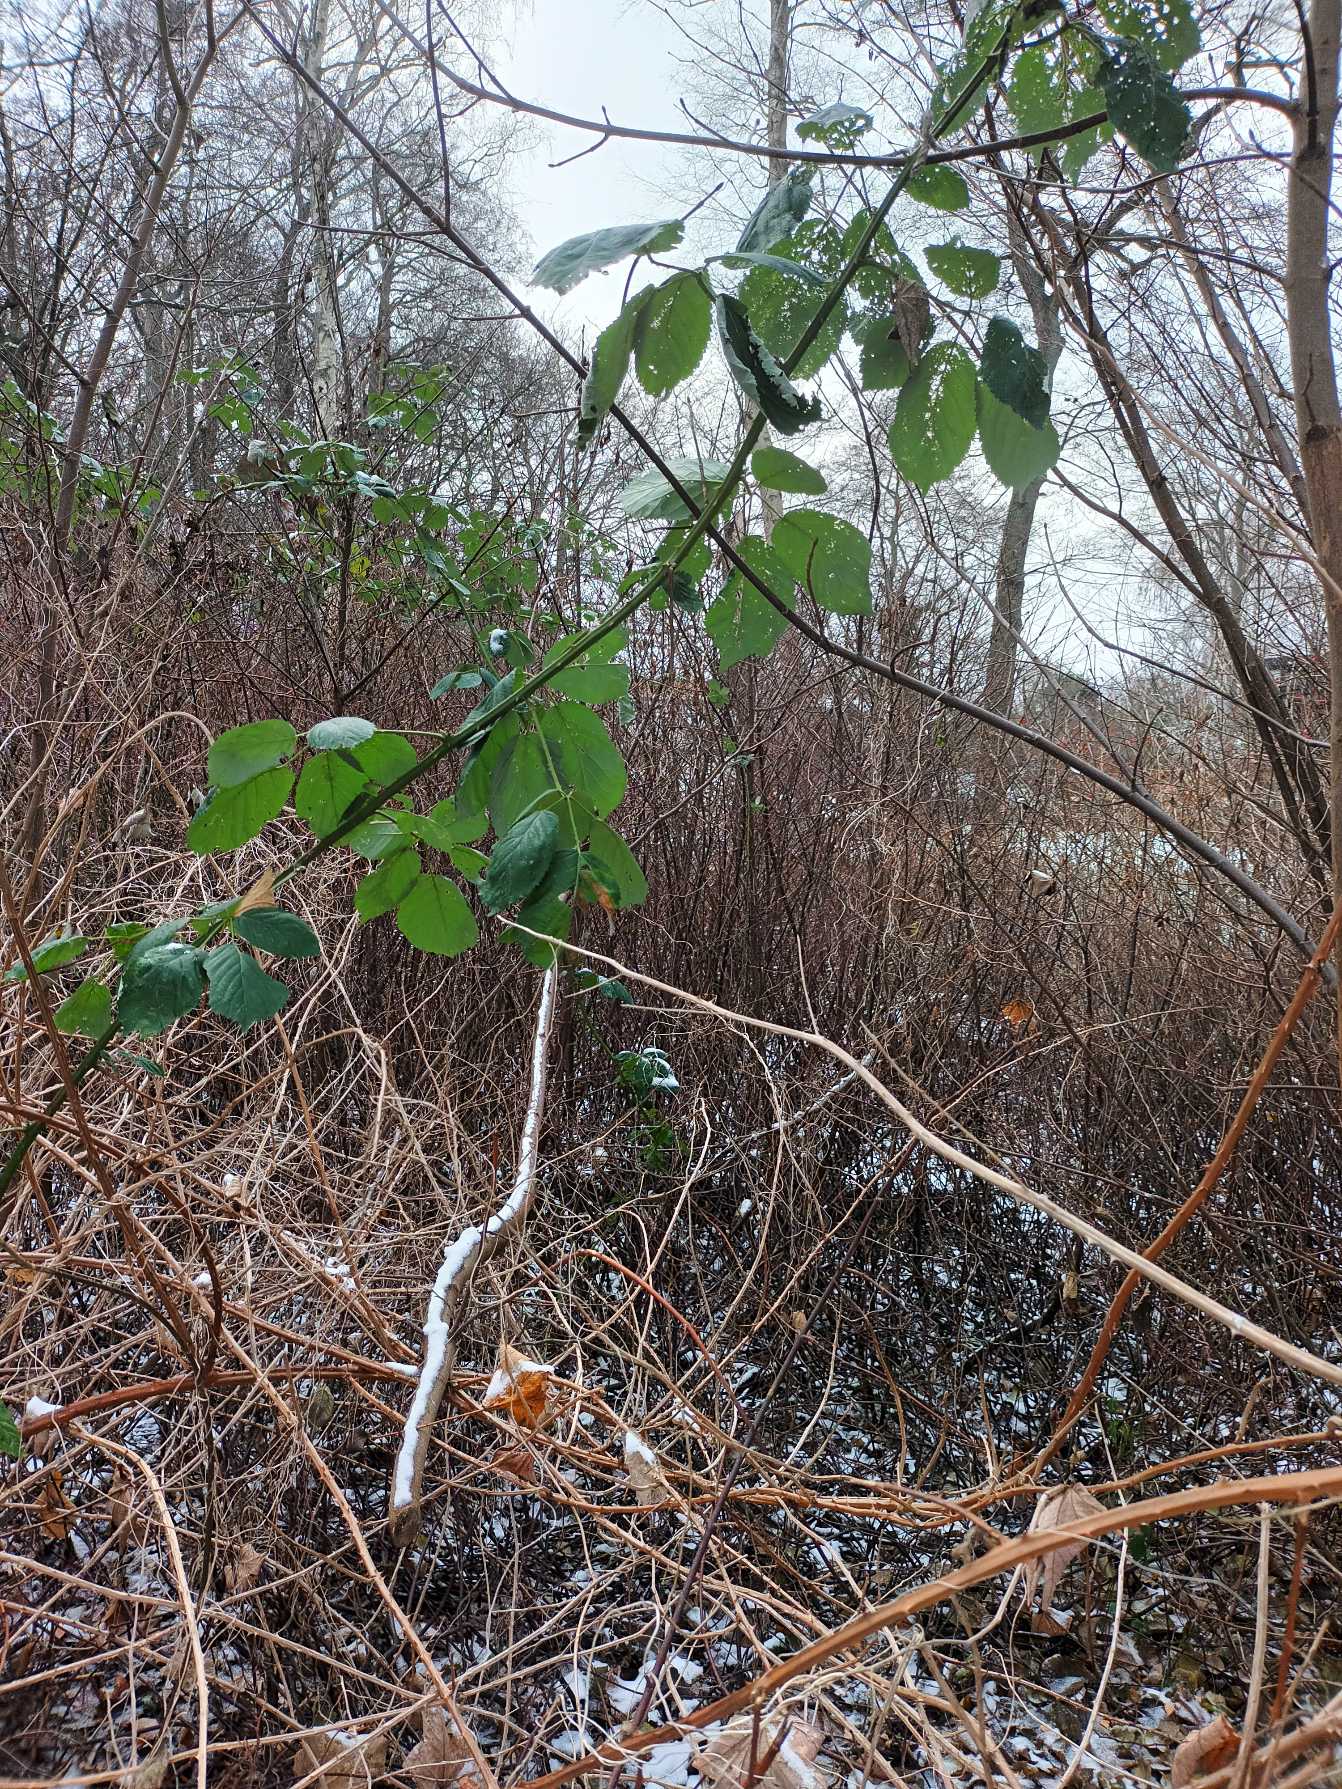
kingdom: Plantae
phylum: Tracheophyta
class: Magnoliopsida
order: Rosales
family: Rosaceae
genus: Rubus
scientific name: Rubus armeniacus
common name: Armensk brombær
